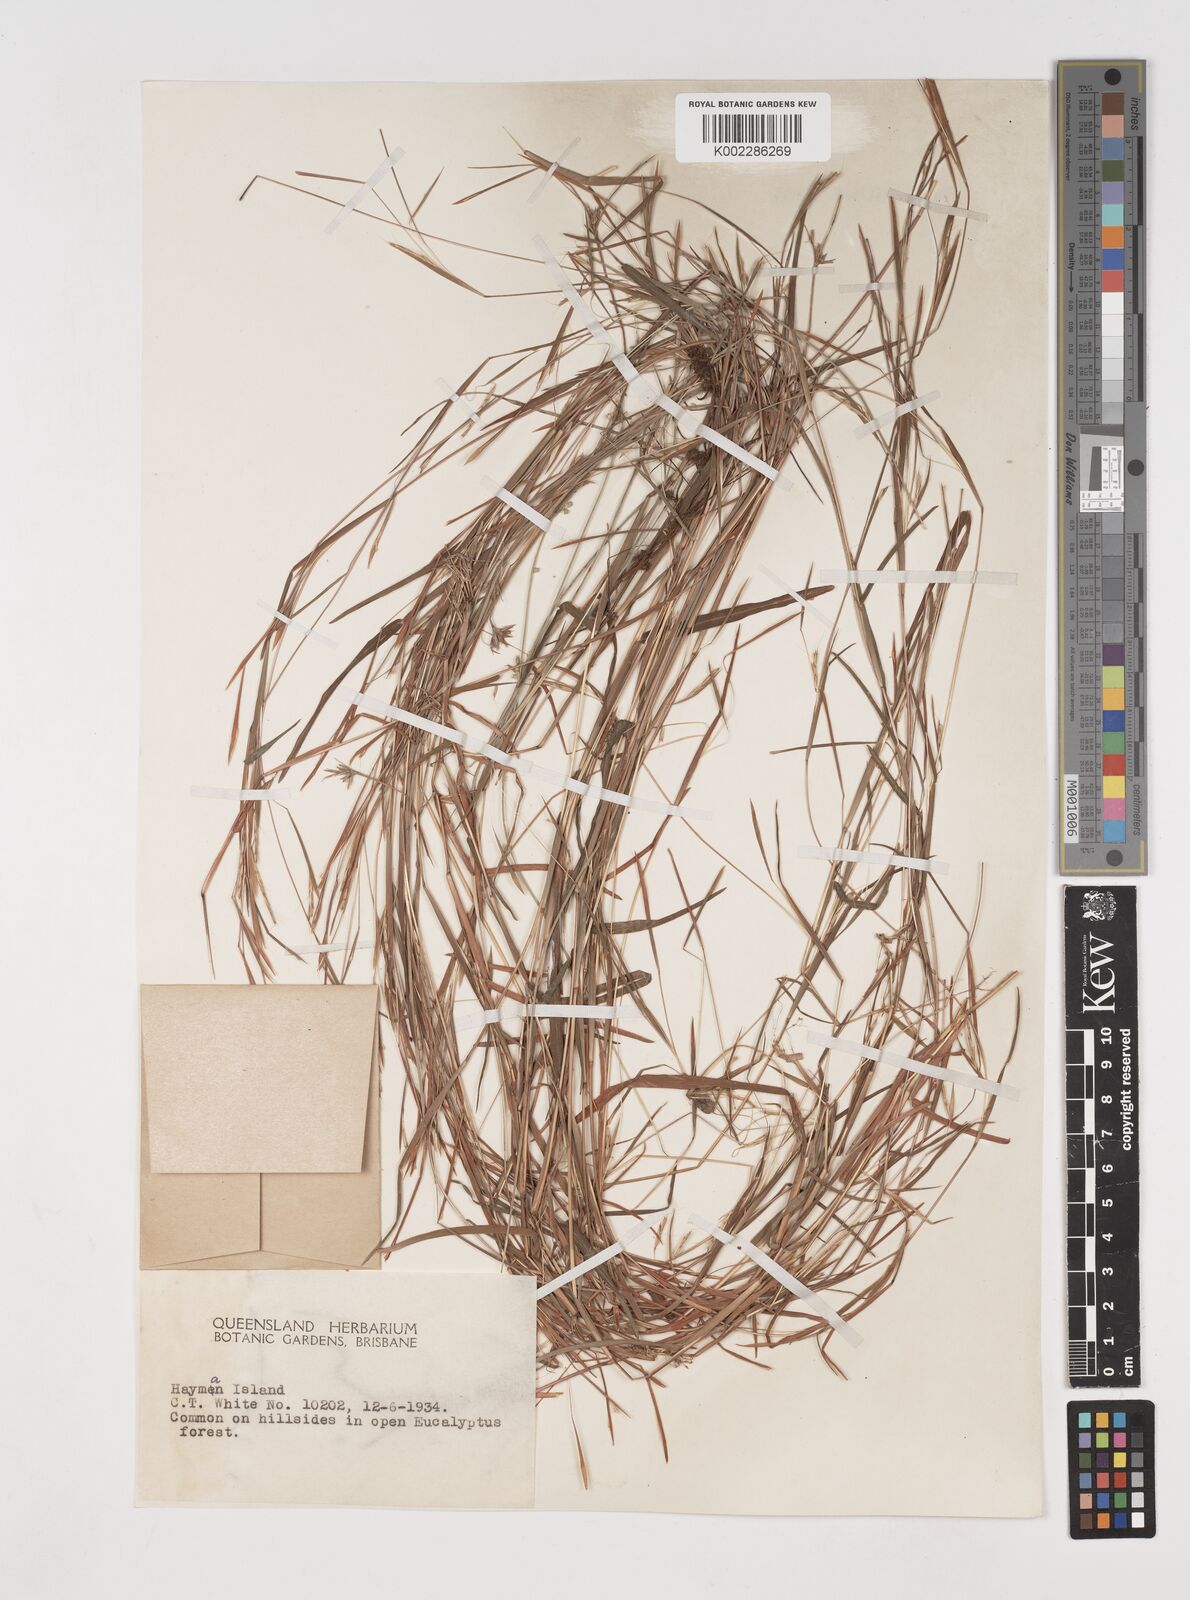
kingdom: Plantae
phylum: Tracheophyta
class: Liliopsida
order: Poales
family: Poaceae
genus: Schizachyrium
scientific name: Schizachyrium pseudeulalia
